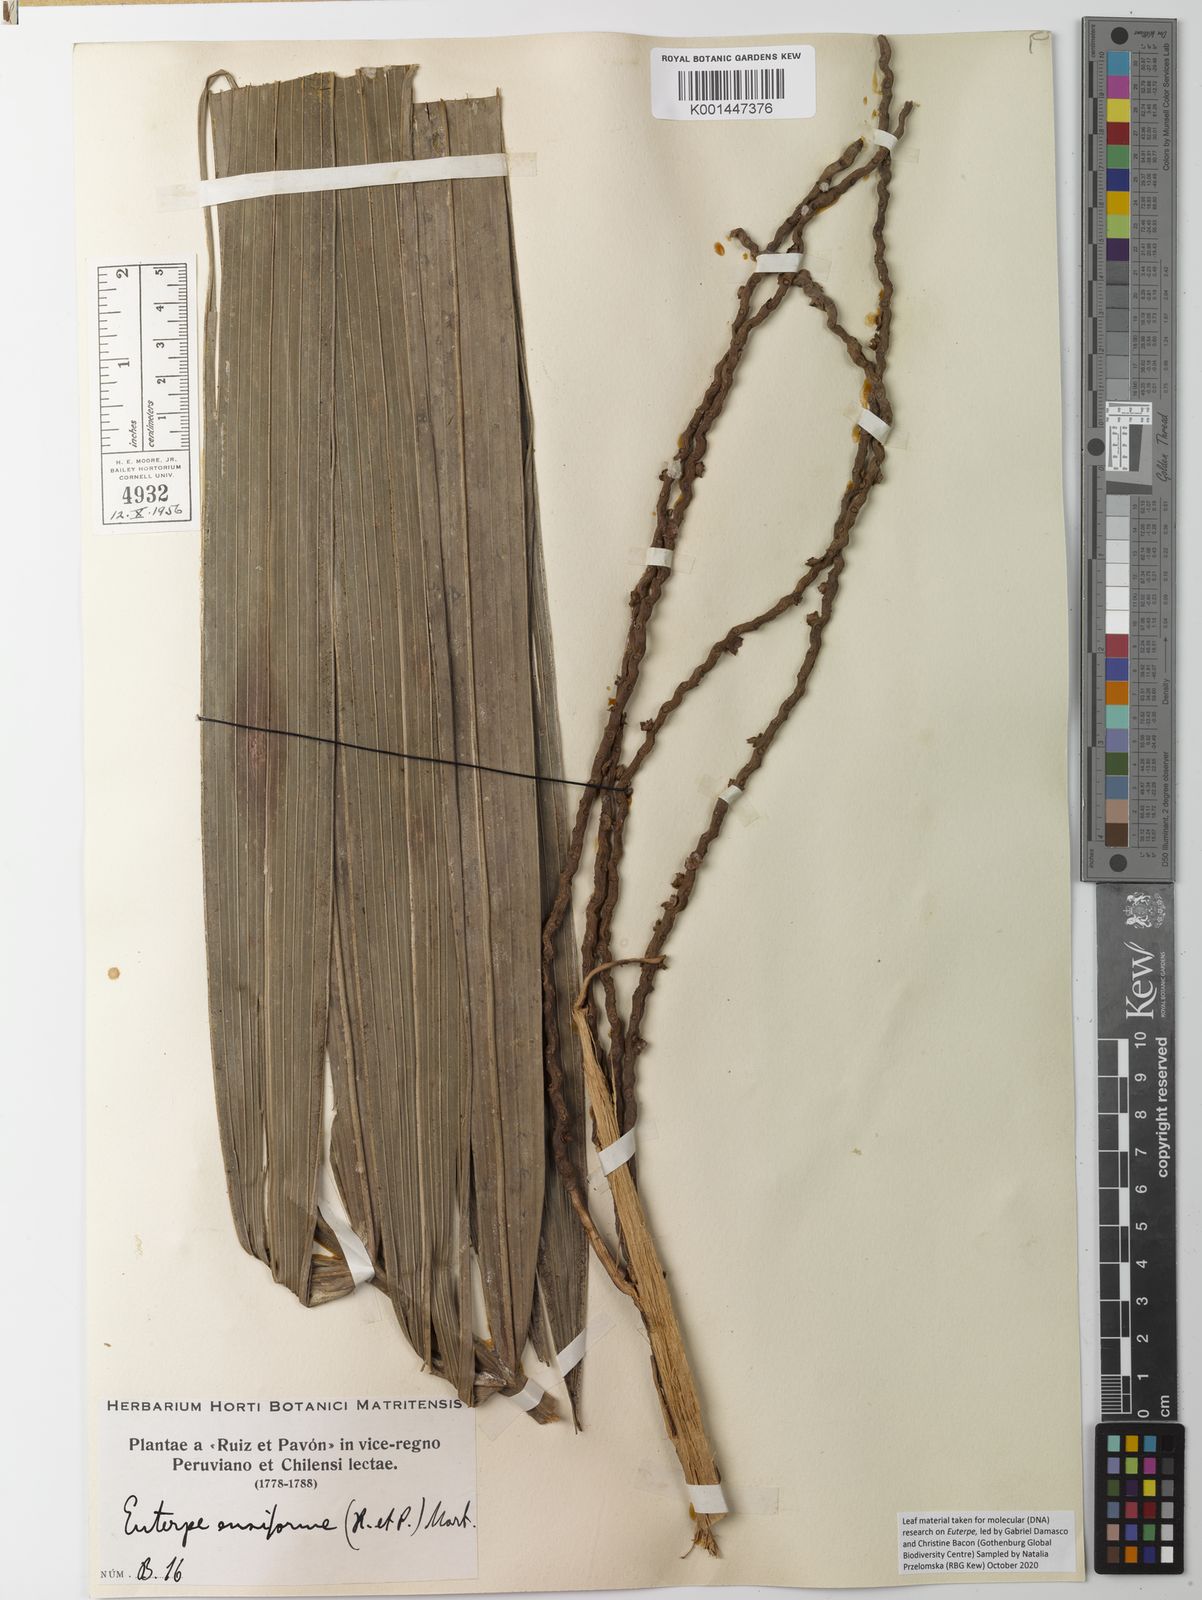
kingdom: Plantae
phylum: Tracheophyta
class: Liliopsida
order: Arecales
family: Arecaceae
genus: Prestoea
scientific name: Prestoea ensiformis
